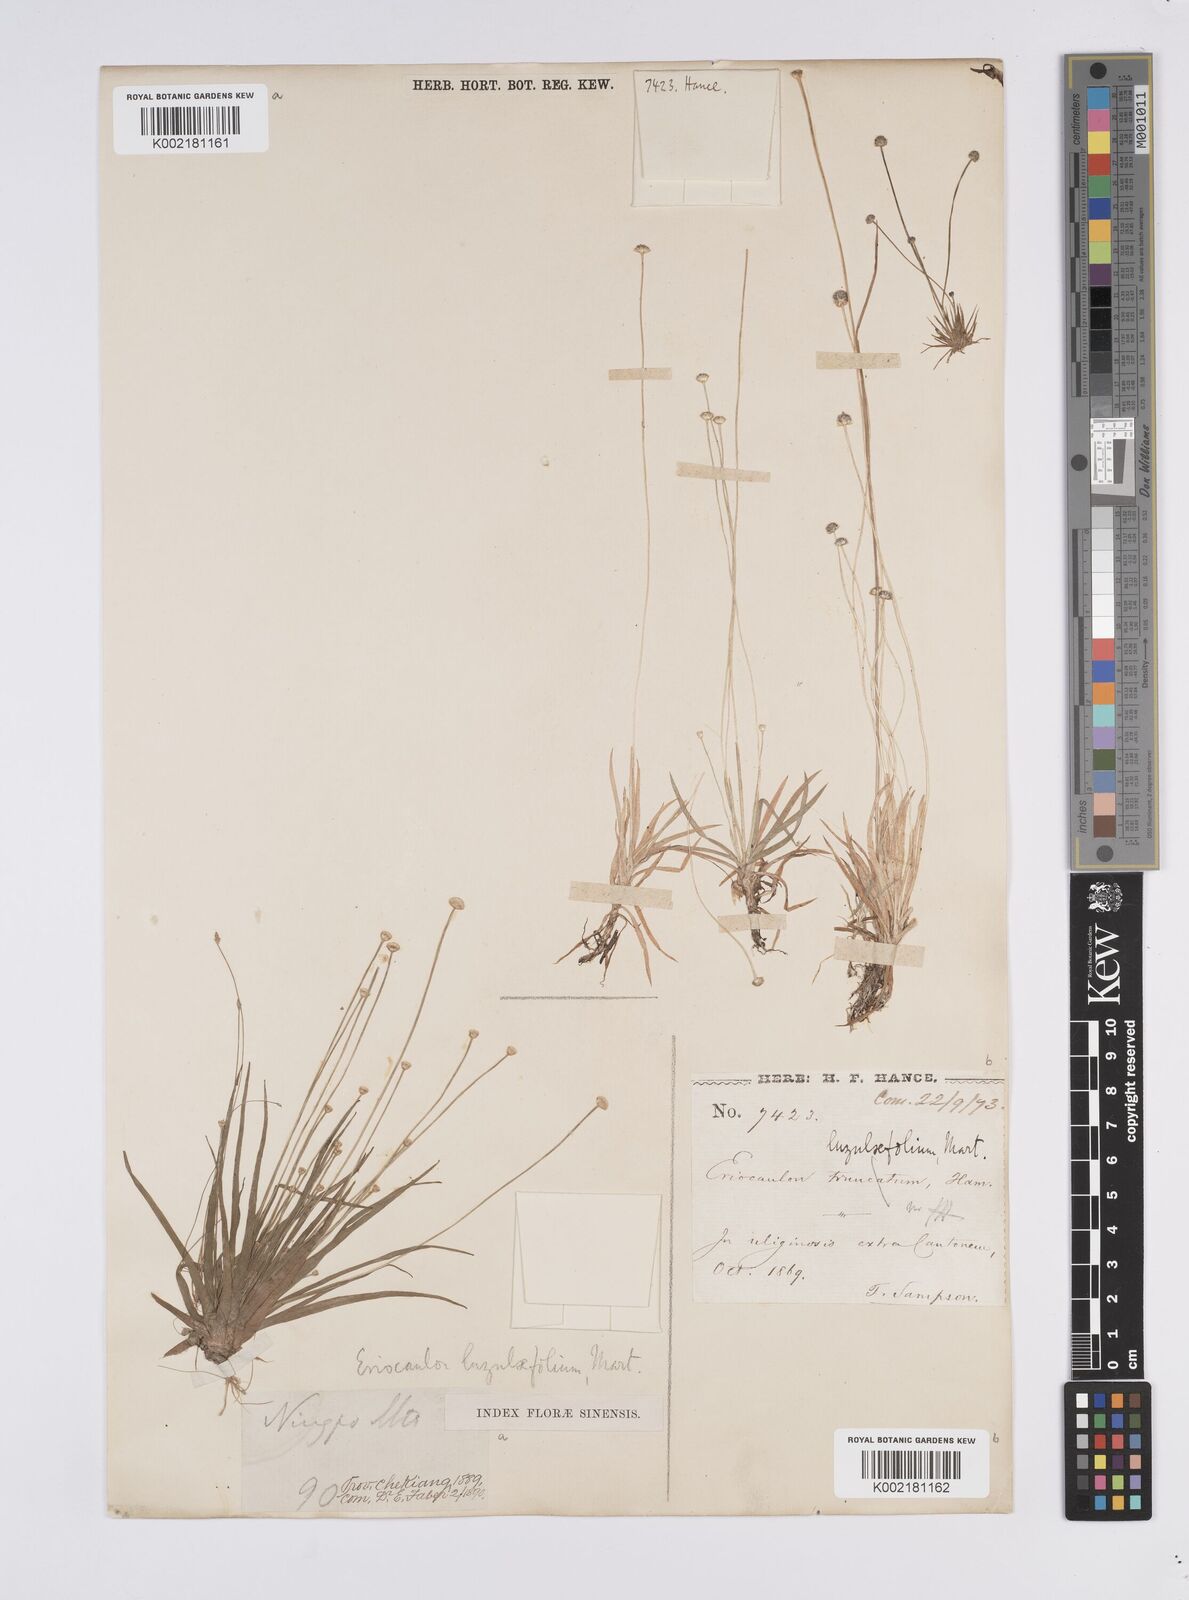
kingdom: Plantae
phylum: Tracheophyta
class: Liliopsida
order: Poales
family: Eriocaulaceae
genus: Eriocaulon
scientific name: Eriocaulon nepalense
